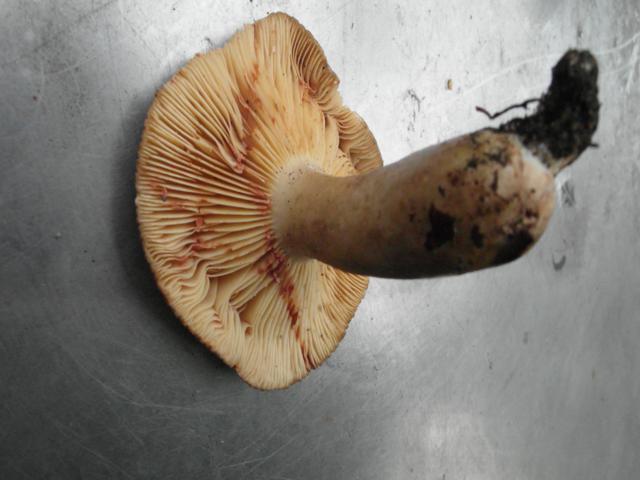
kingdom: Fungi
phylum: Basidiomycota
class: Agaricomycetes
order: Russulales
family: Russulaceae
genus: Lactarius
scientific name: Lactarius pterosporus
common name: vingesporet mælkehat
